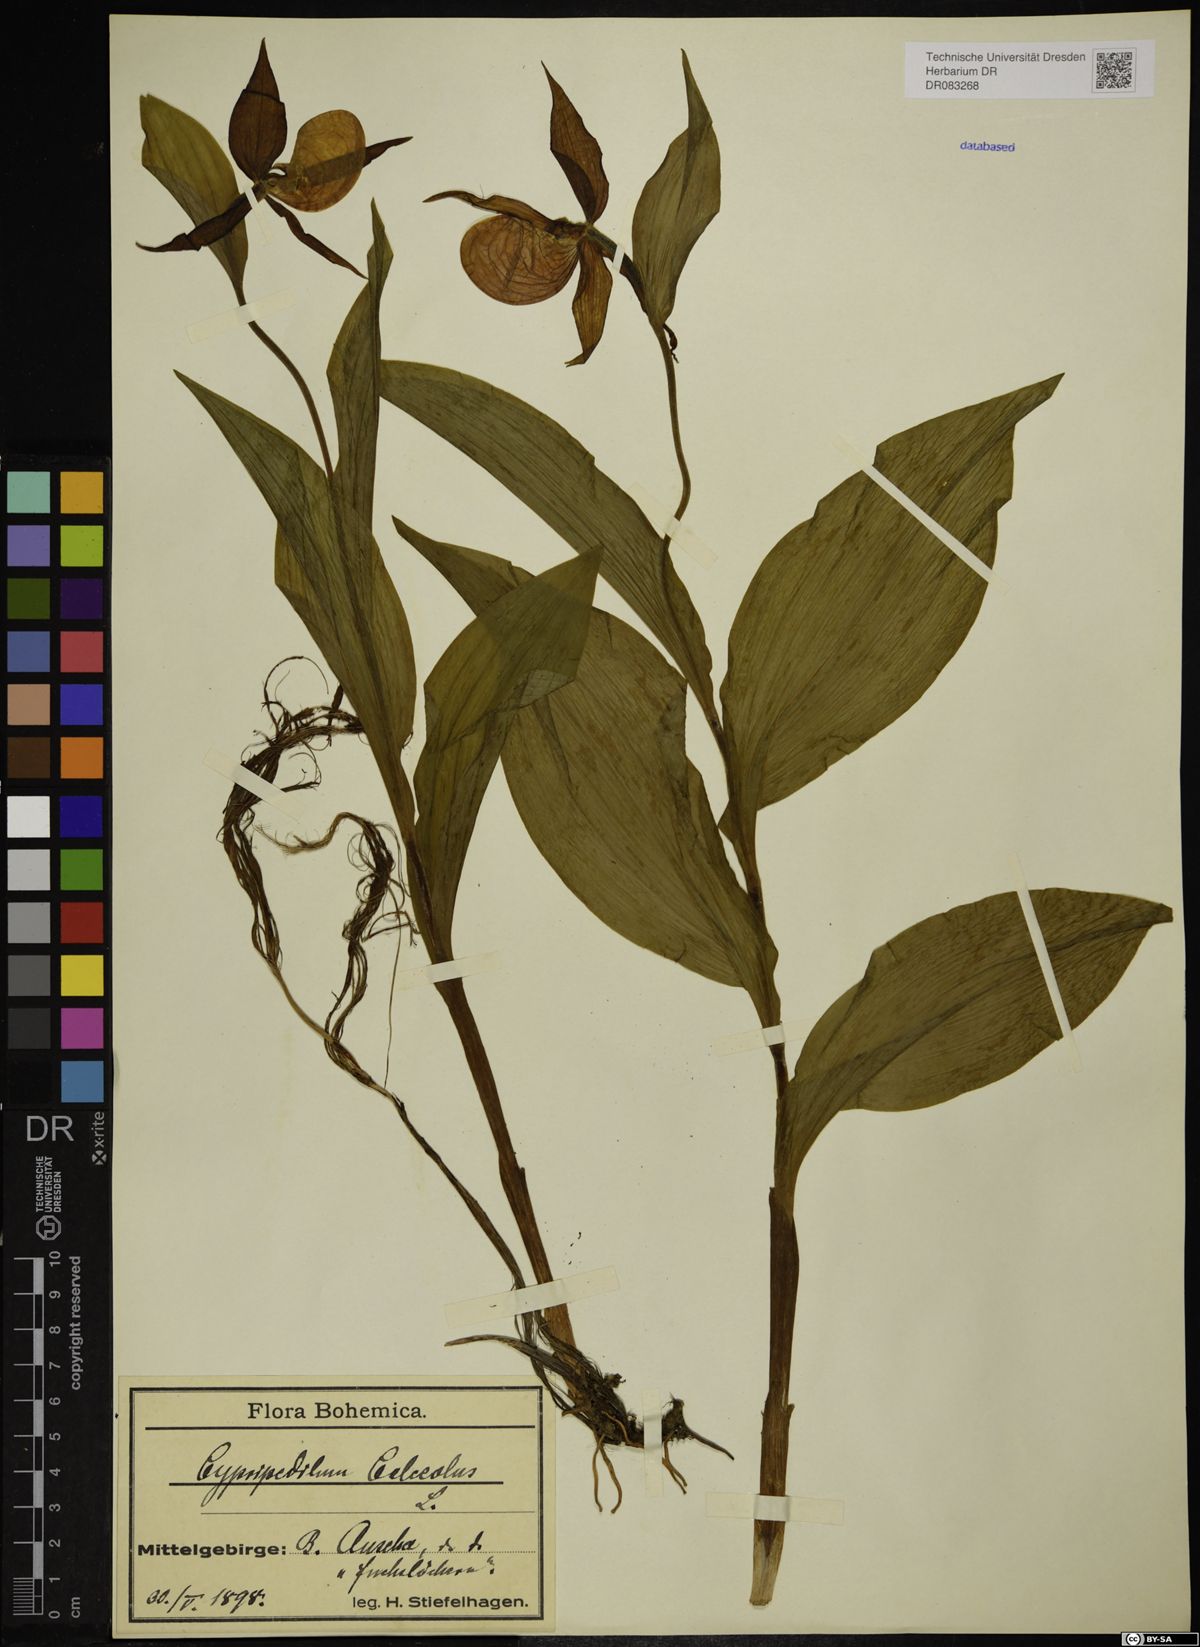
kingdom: Plantae
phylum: Tracheophyta
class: Liliopsida
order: Asparagales
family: Orchidaceae
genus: Cypripedium
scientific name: Cypripedium calceolus
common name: Lady's-slipper
